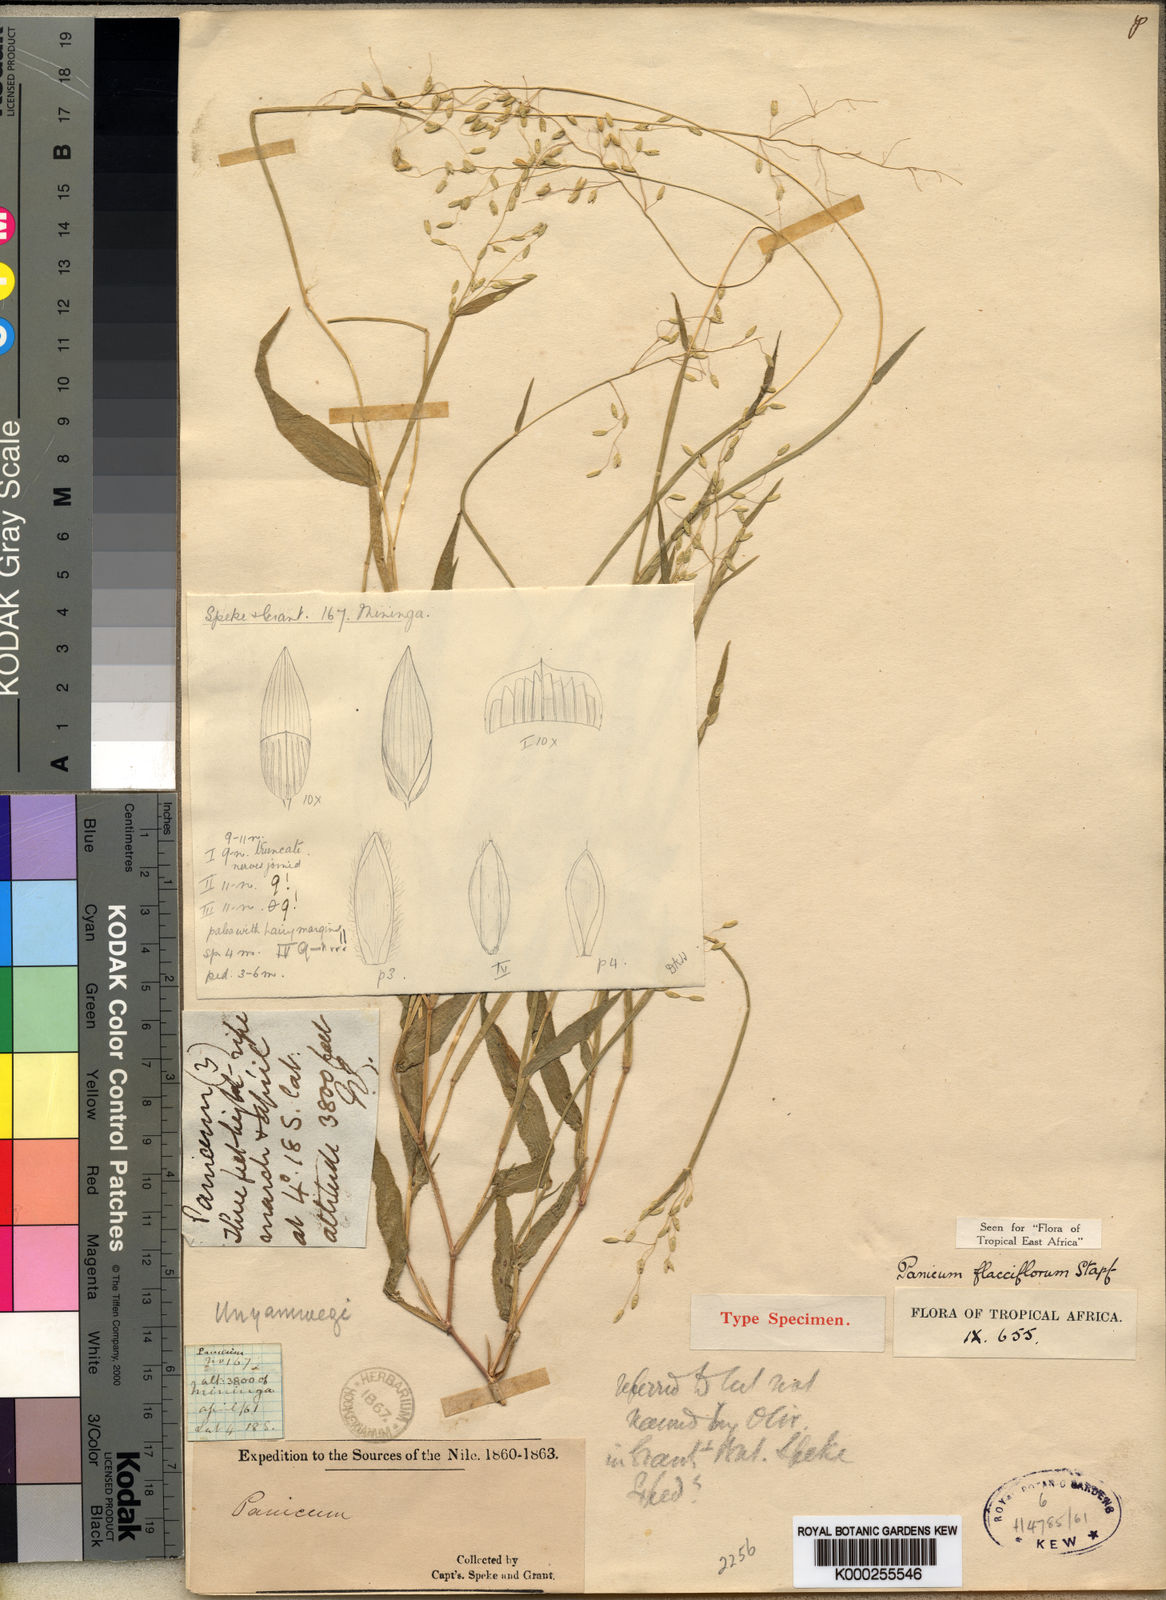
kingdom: Plantae
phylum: Tracheophyta
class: Liliopsida
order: Poales
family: Poaceae
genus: Adenochloa
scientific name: Adenochloa flacciflora
